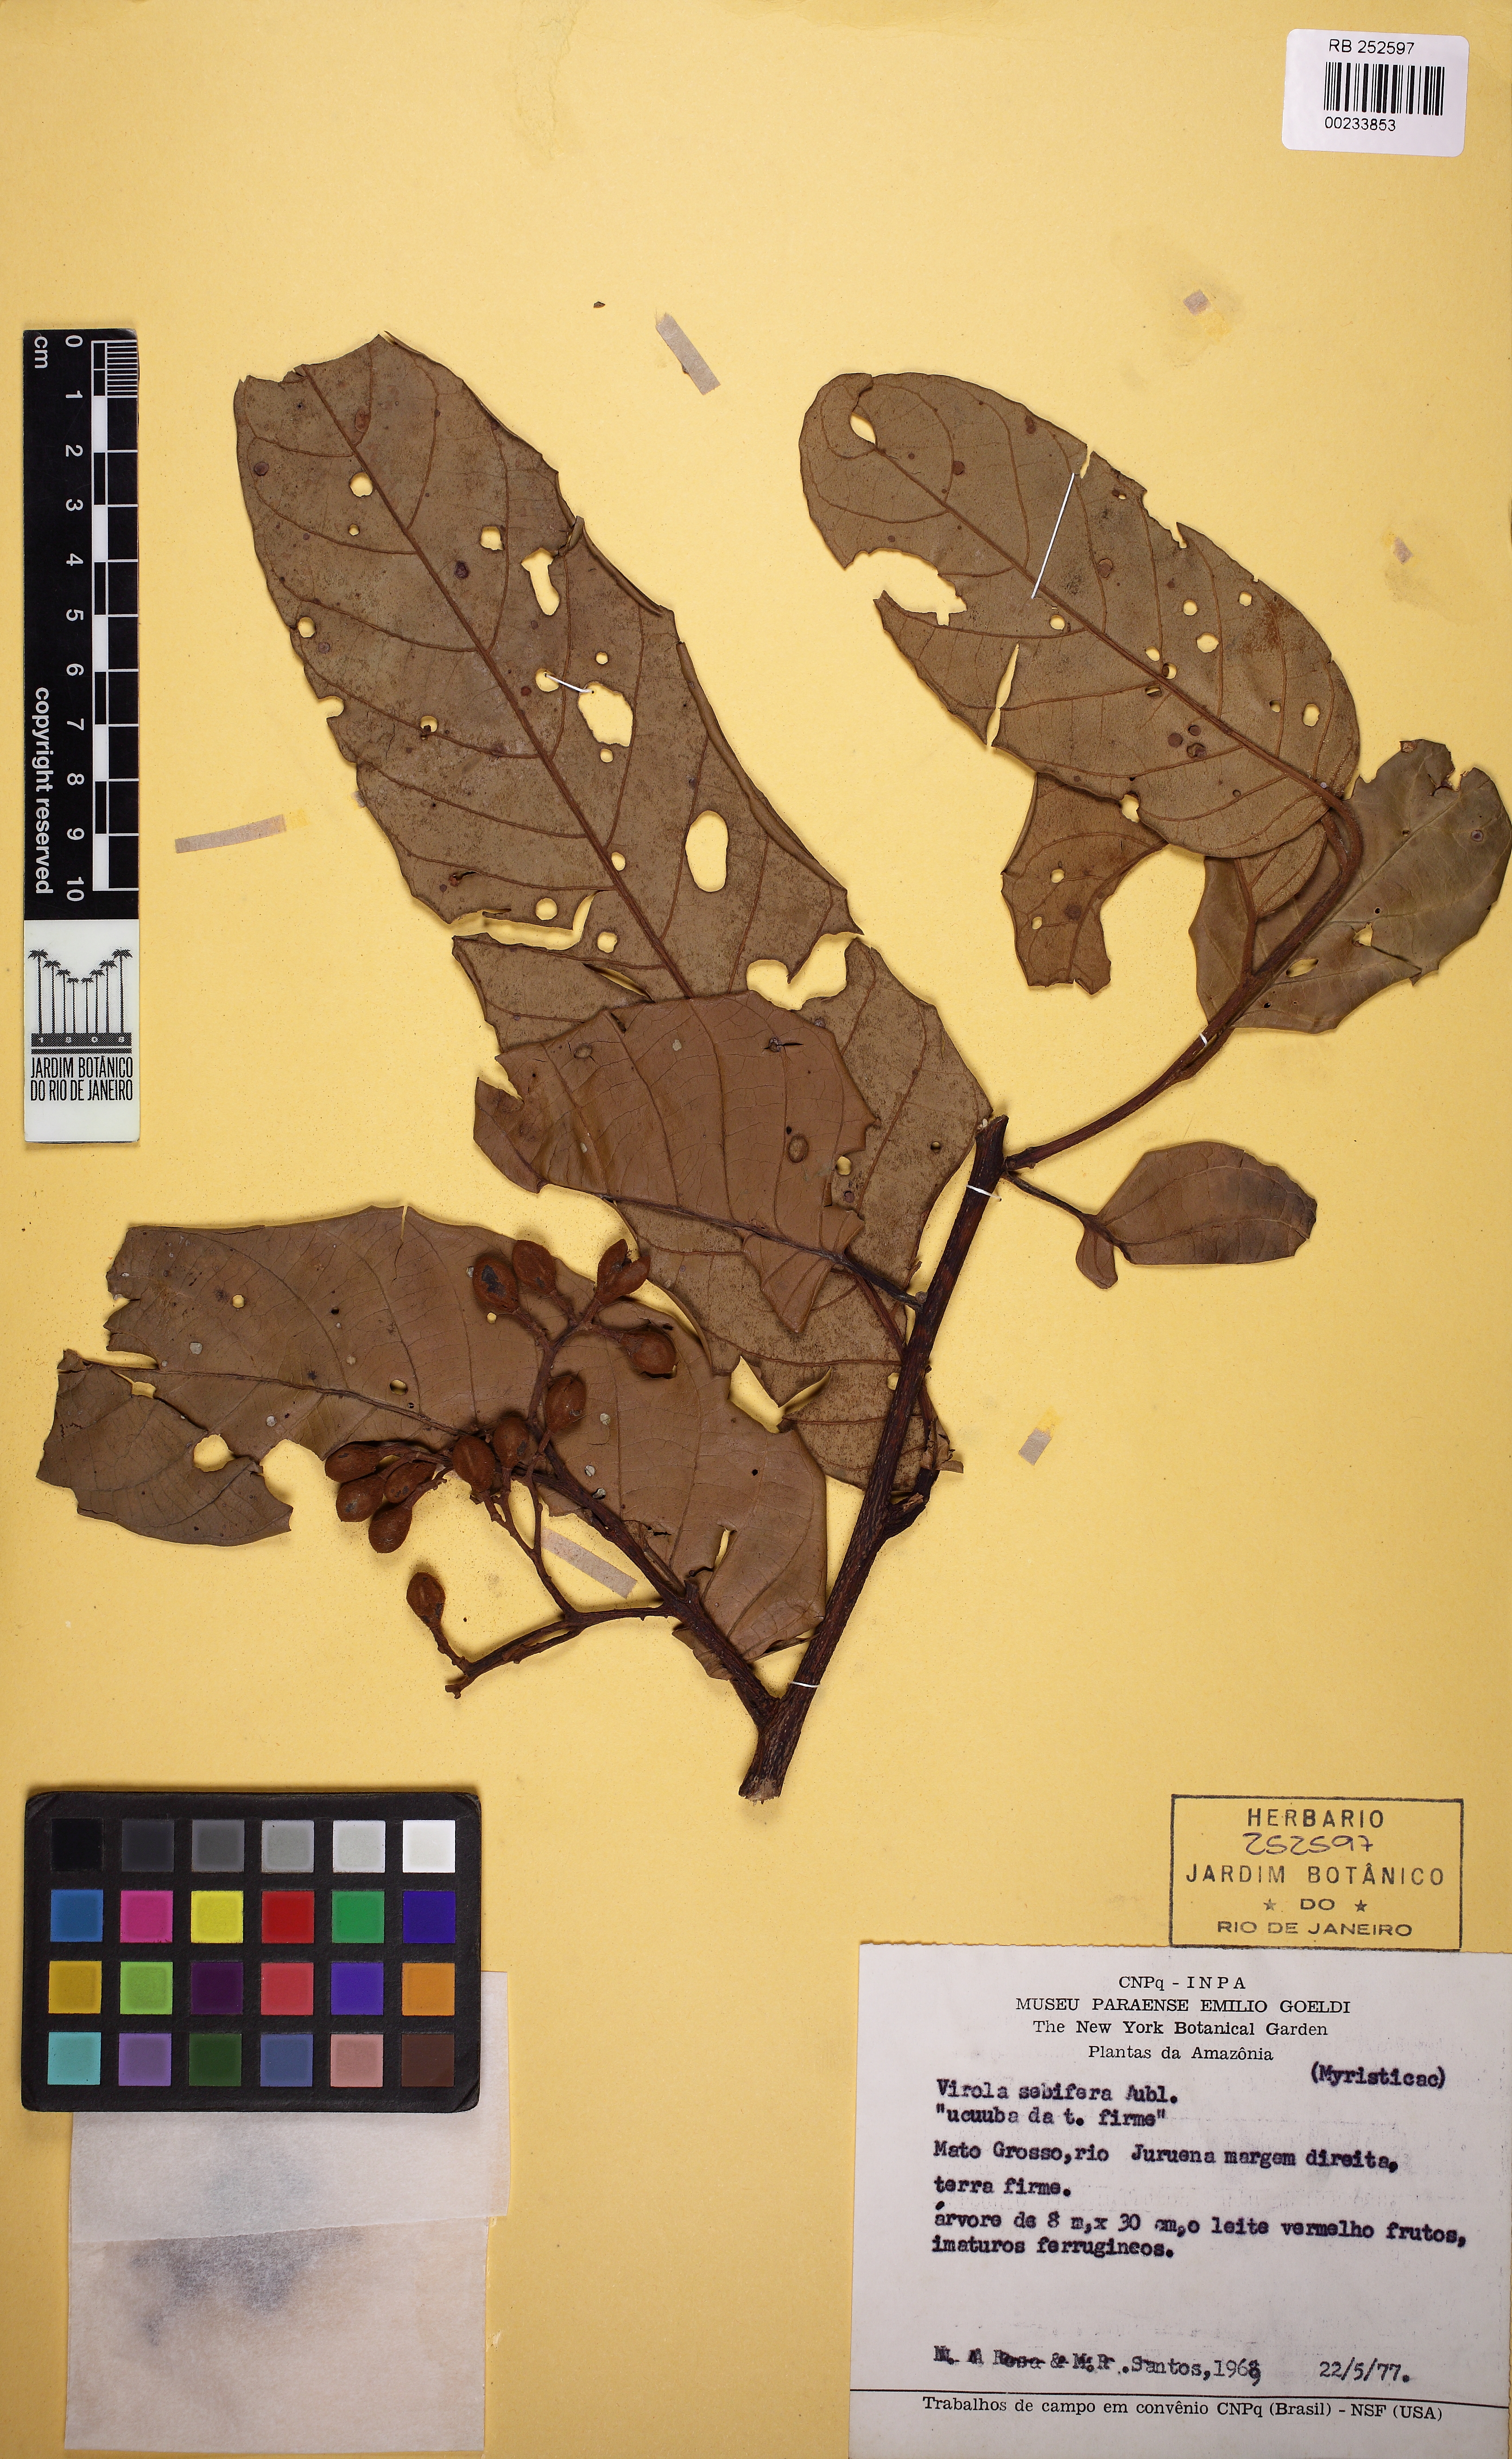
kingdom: Plantae
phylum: Tracheophyta
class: Magnoliopsida
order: Magnoliales
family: Myristicaceae
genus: Virola
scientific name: Virola sebifera
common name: Red ucuuba
